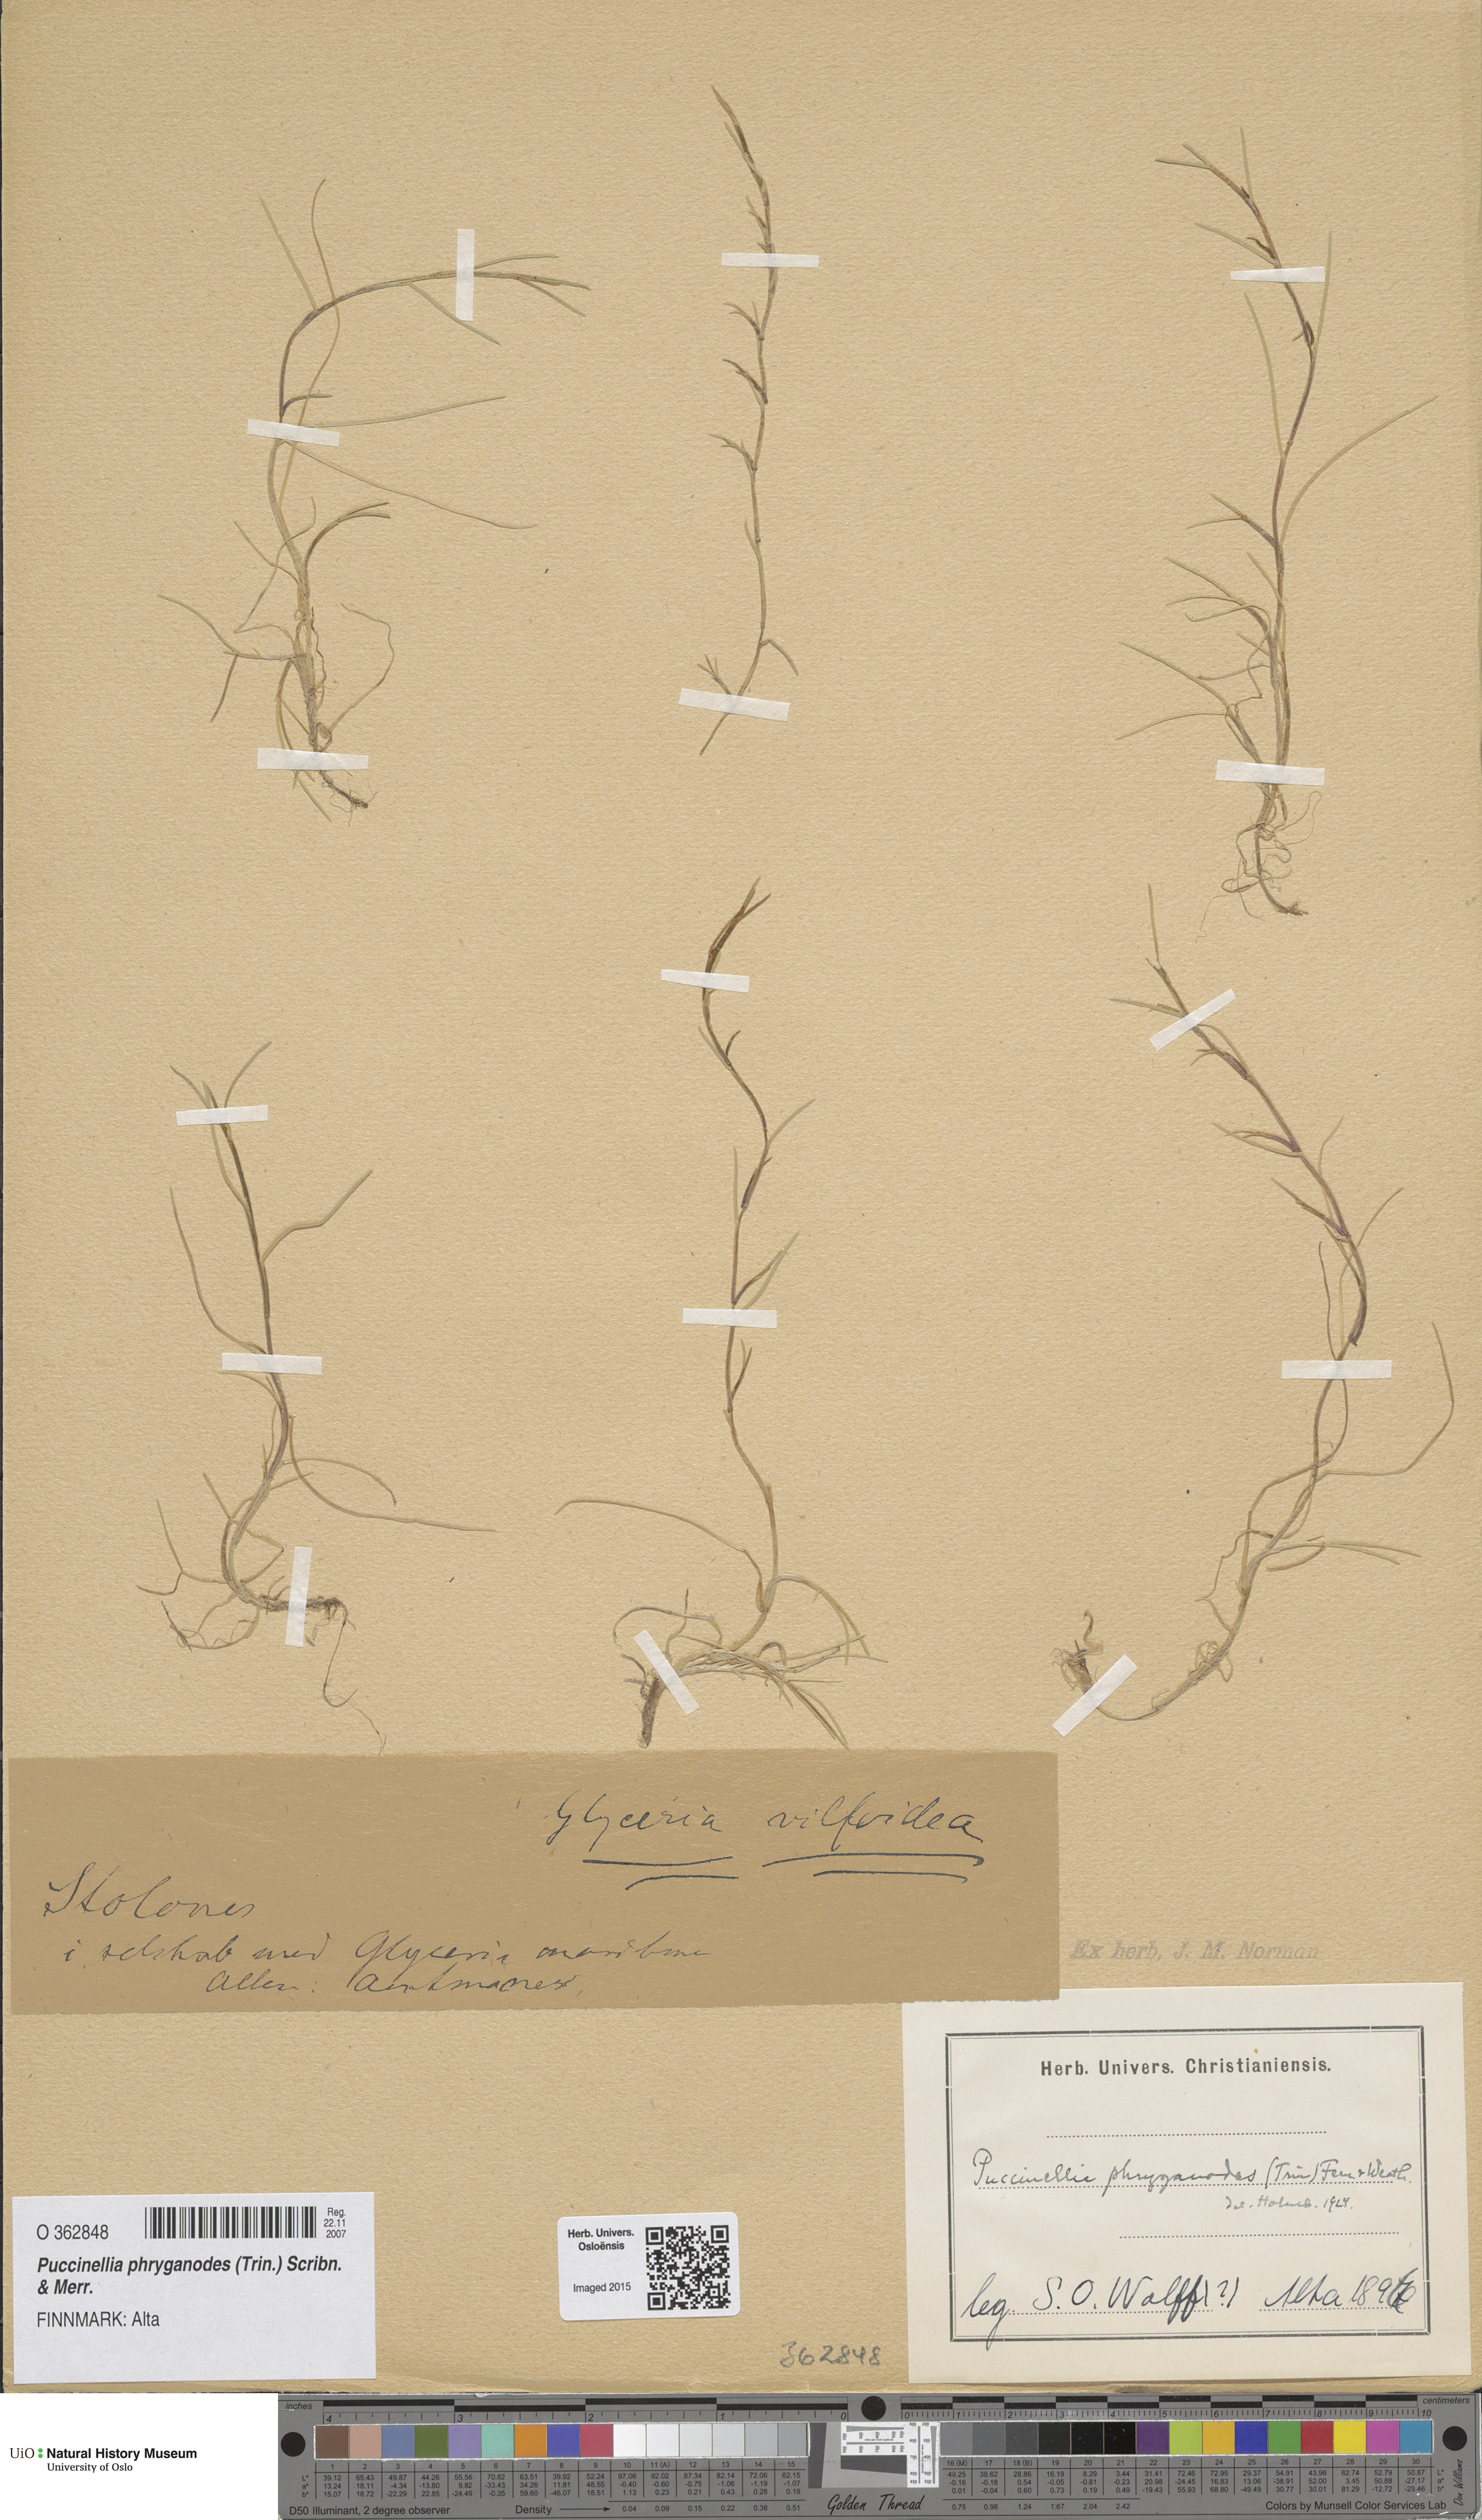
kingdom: Plantae
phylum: Tracheophyta
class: Liliopsida
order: Poales
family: Poaceae
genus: Puccinellia
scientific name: Puccinellia phryganodes
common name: Creeping alkaligrass
